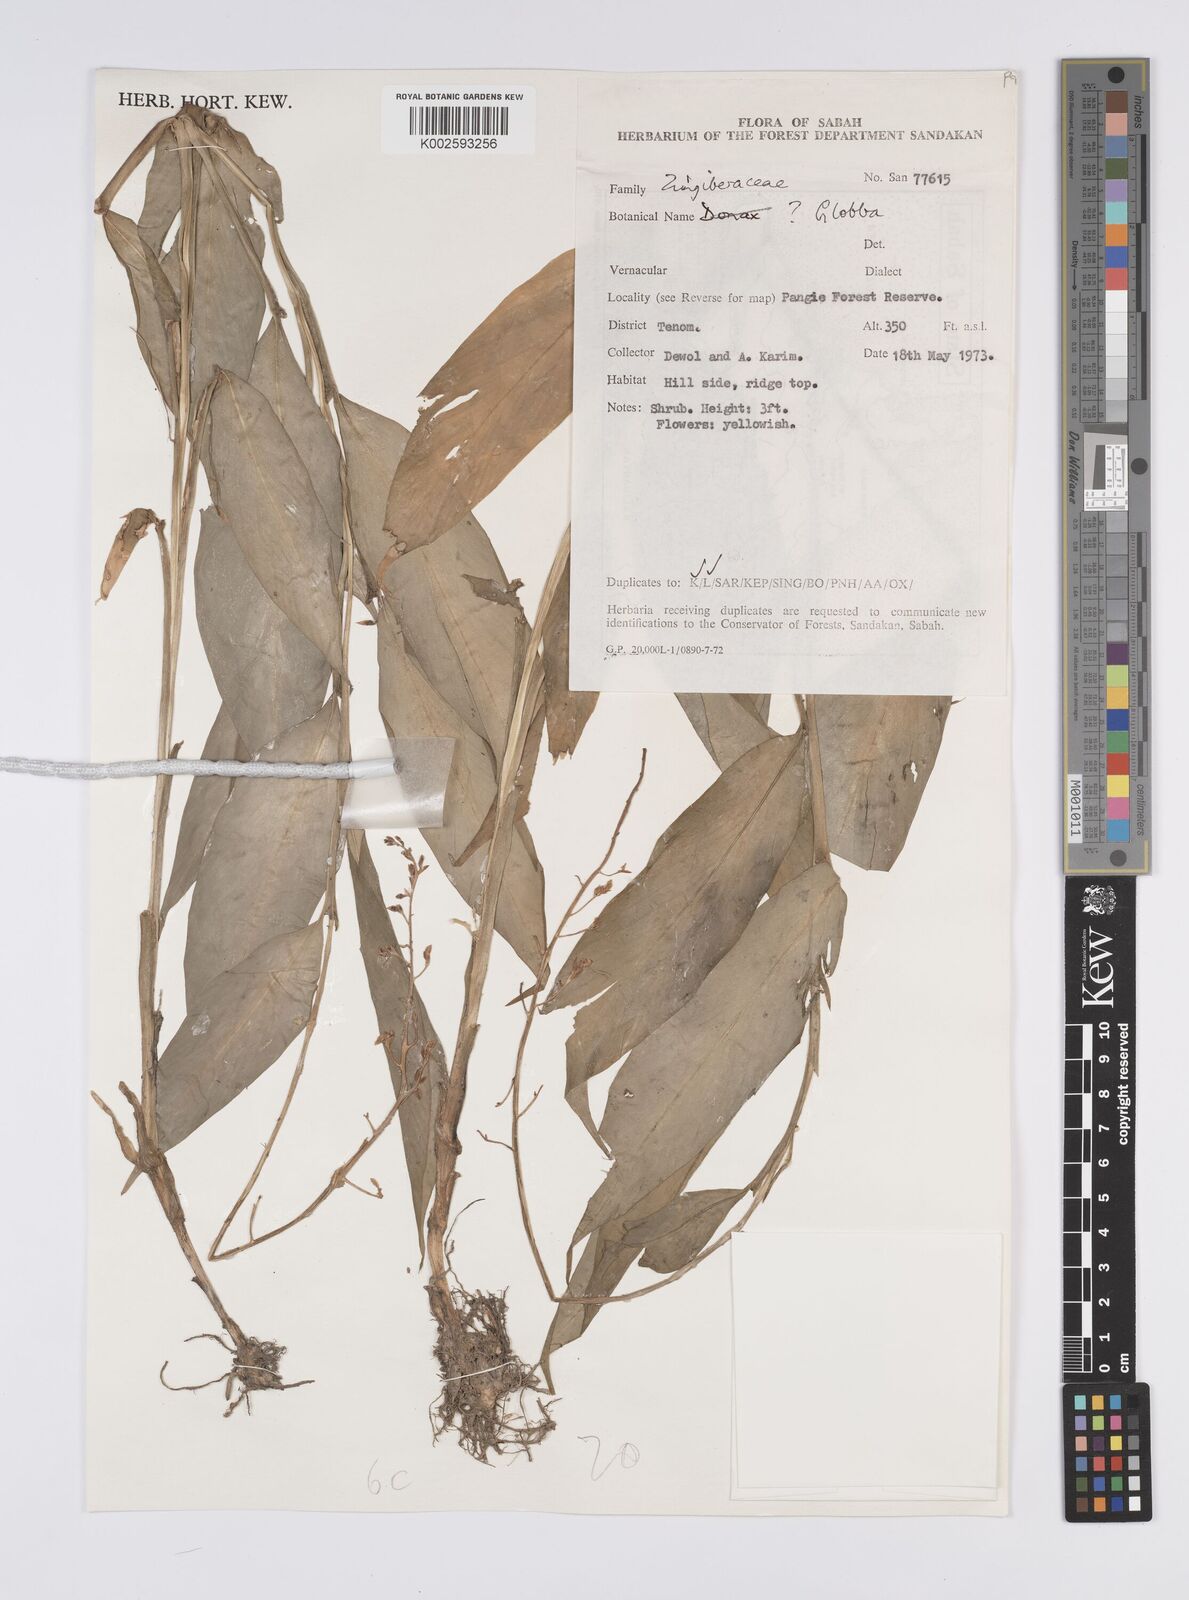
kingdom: Plantae
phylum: Tracheophyta
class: Liliopsida
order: Zingiberales
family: Zingiberaceae
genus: Globba
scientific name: Globba
